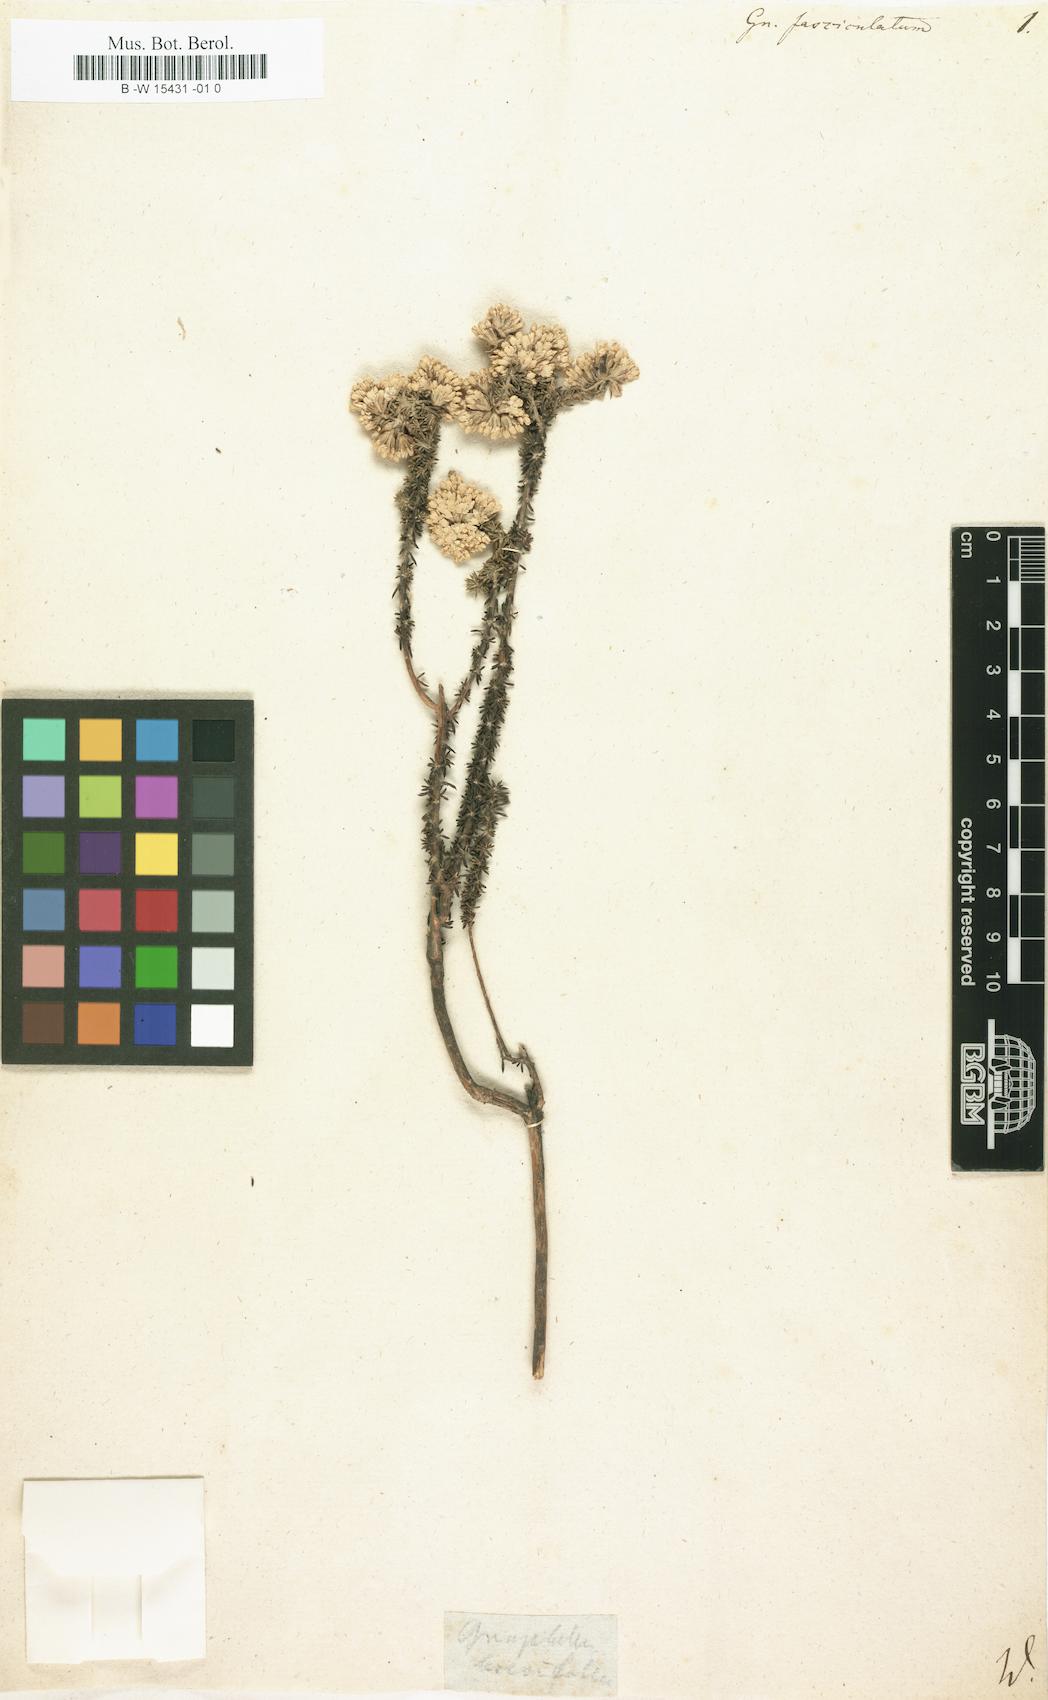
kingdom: Plantae
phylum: Tracheophyta
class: Magnoliopsida
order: Asterales
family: Asteraceae
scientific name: Asteraceae
